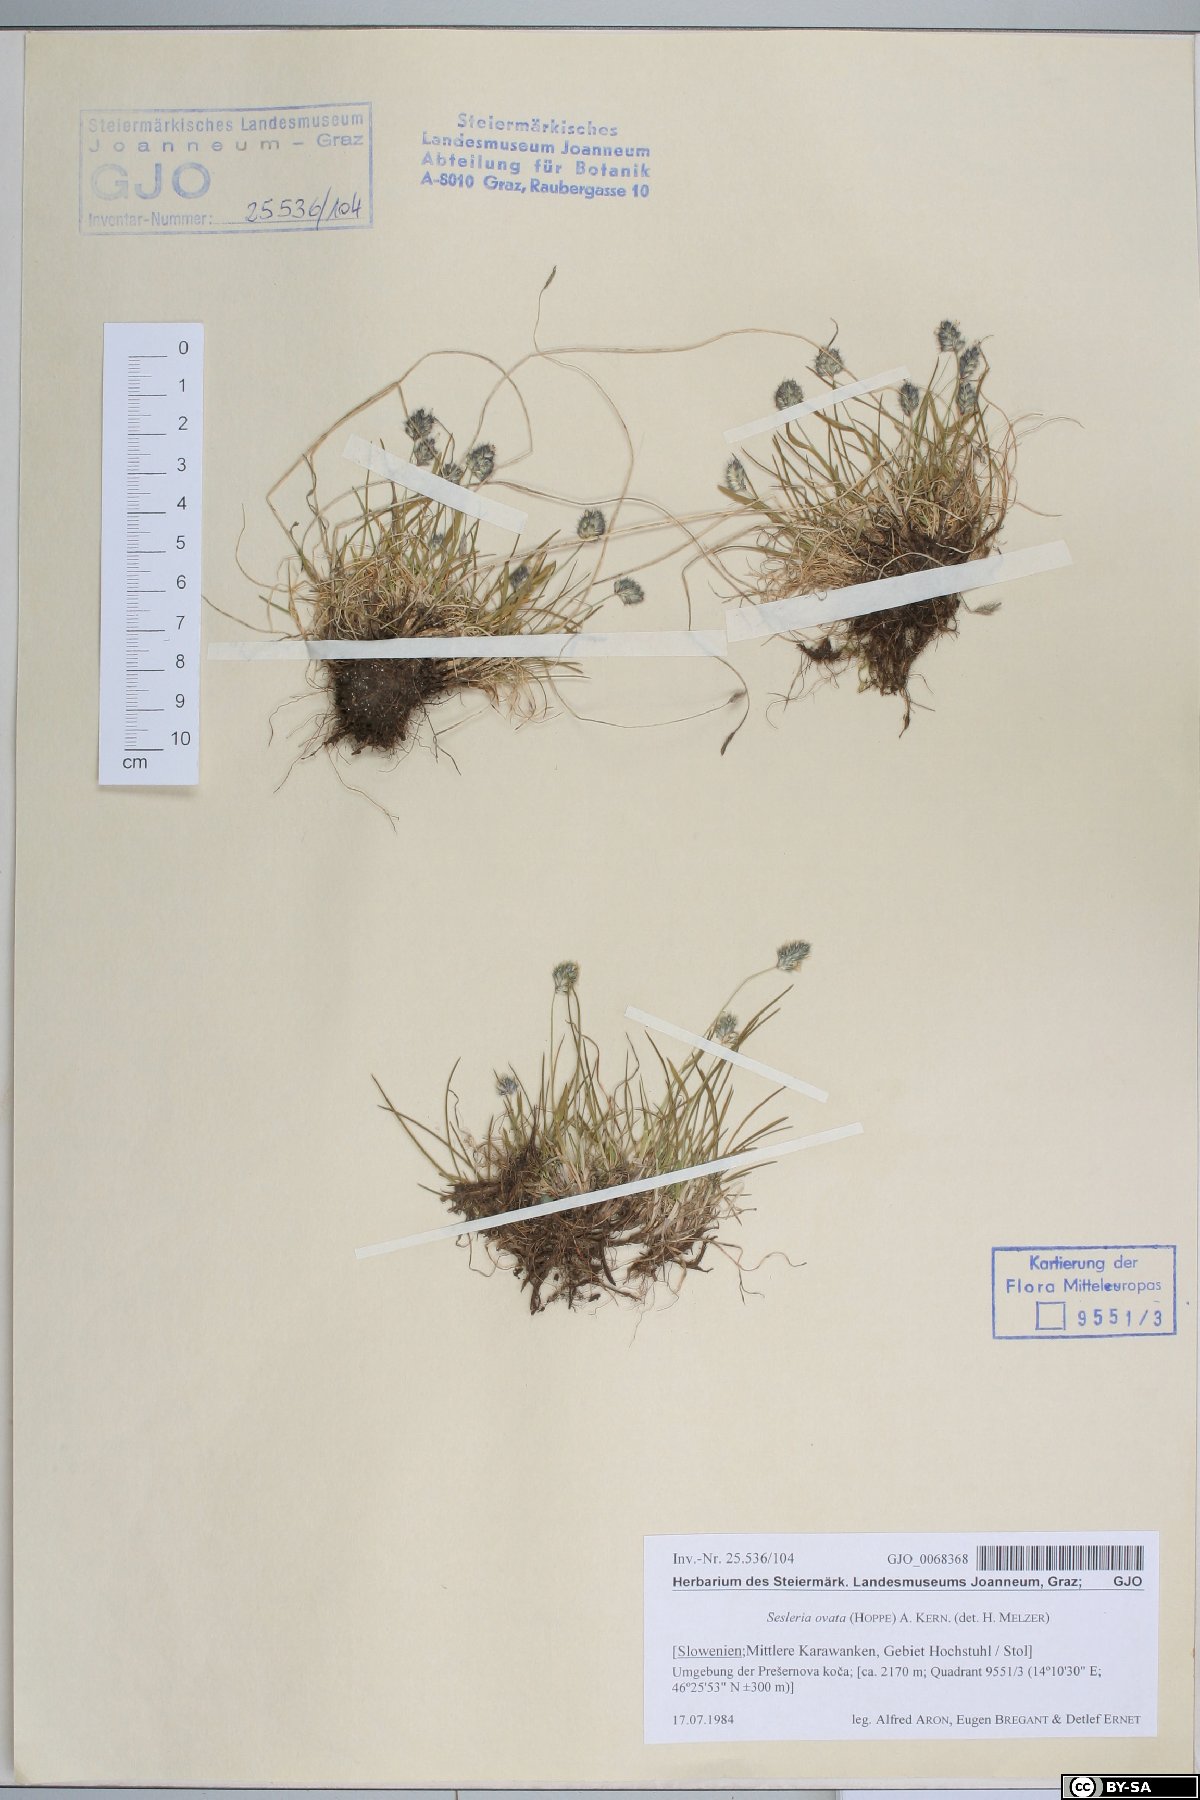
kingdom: Plantae
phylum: Tracheophyta
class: Liliopsida
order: Poales
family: Poaceae
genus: Psilathera
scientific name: Psilathera ovata
